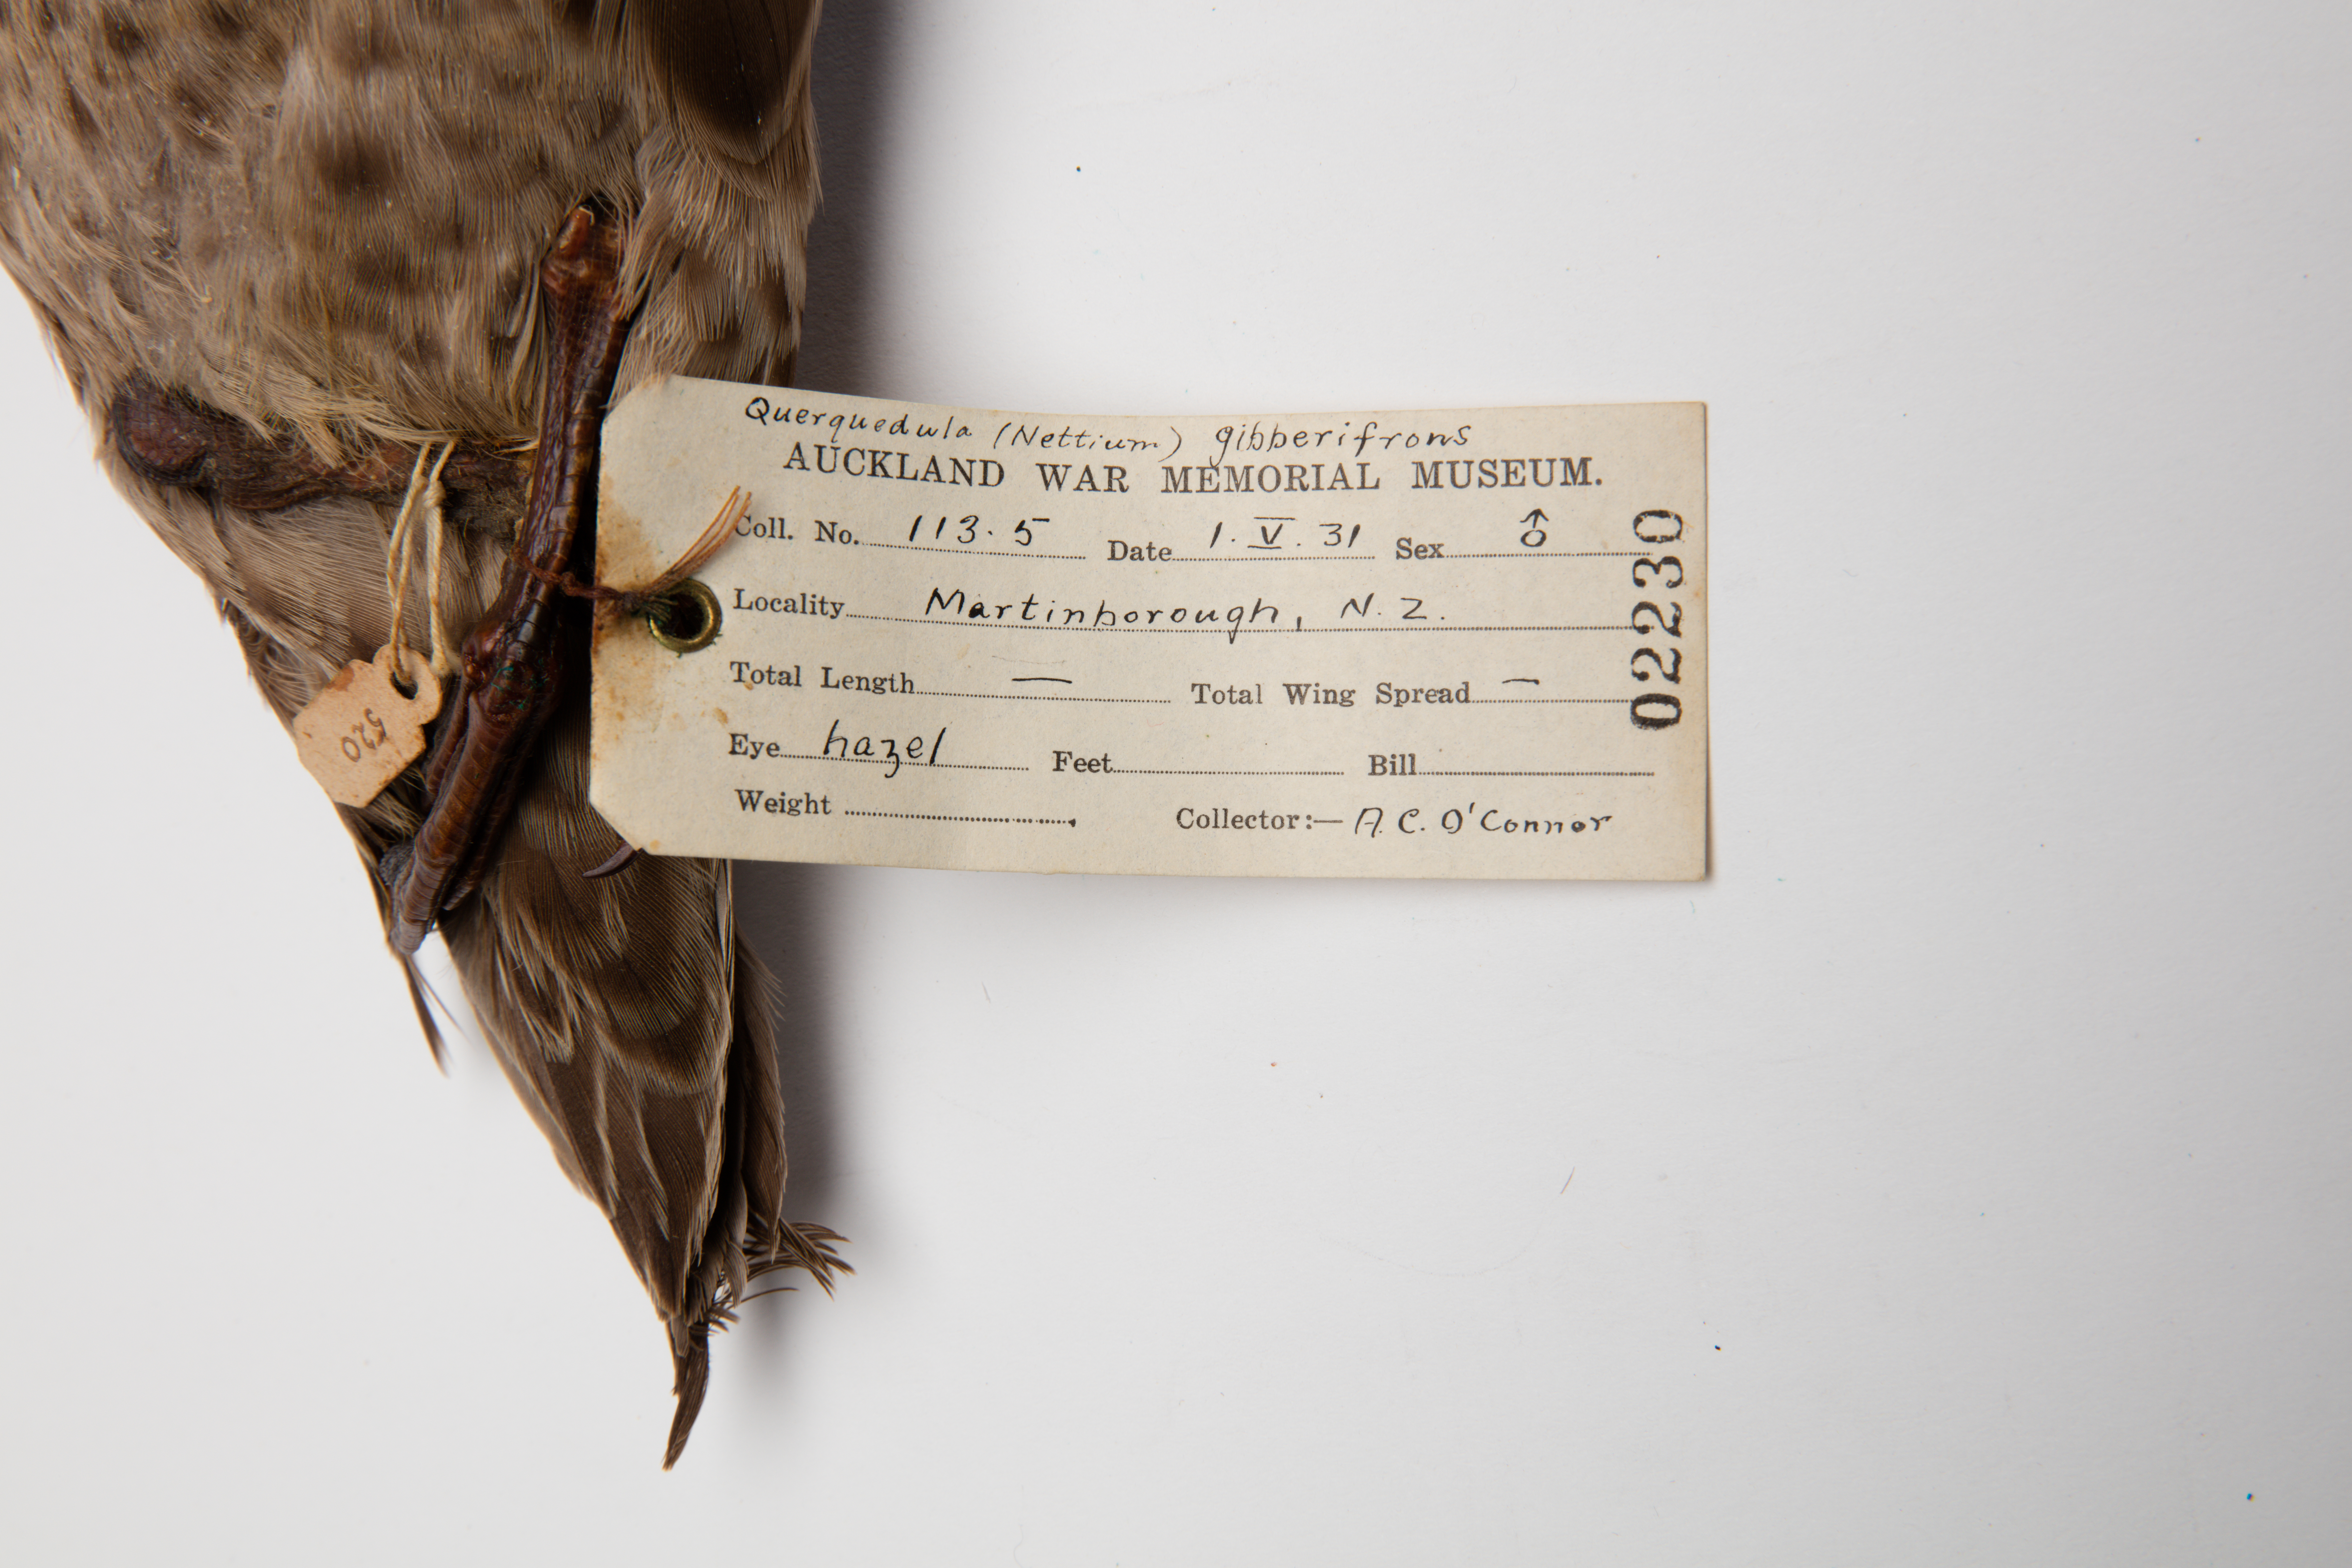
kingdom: Animalia
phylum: Chordata
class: Aves
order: Anseriformes
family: Anatidae
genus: Anas
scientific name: Anas gracilis
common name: Grey teal
